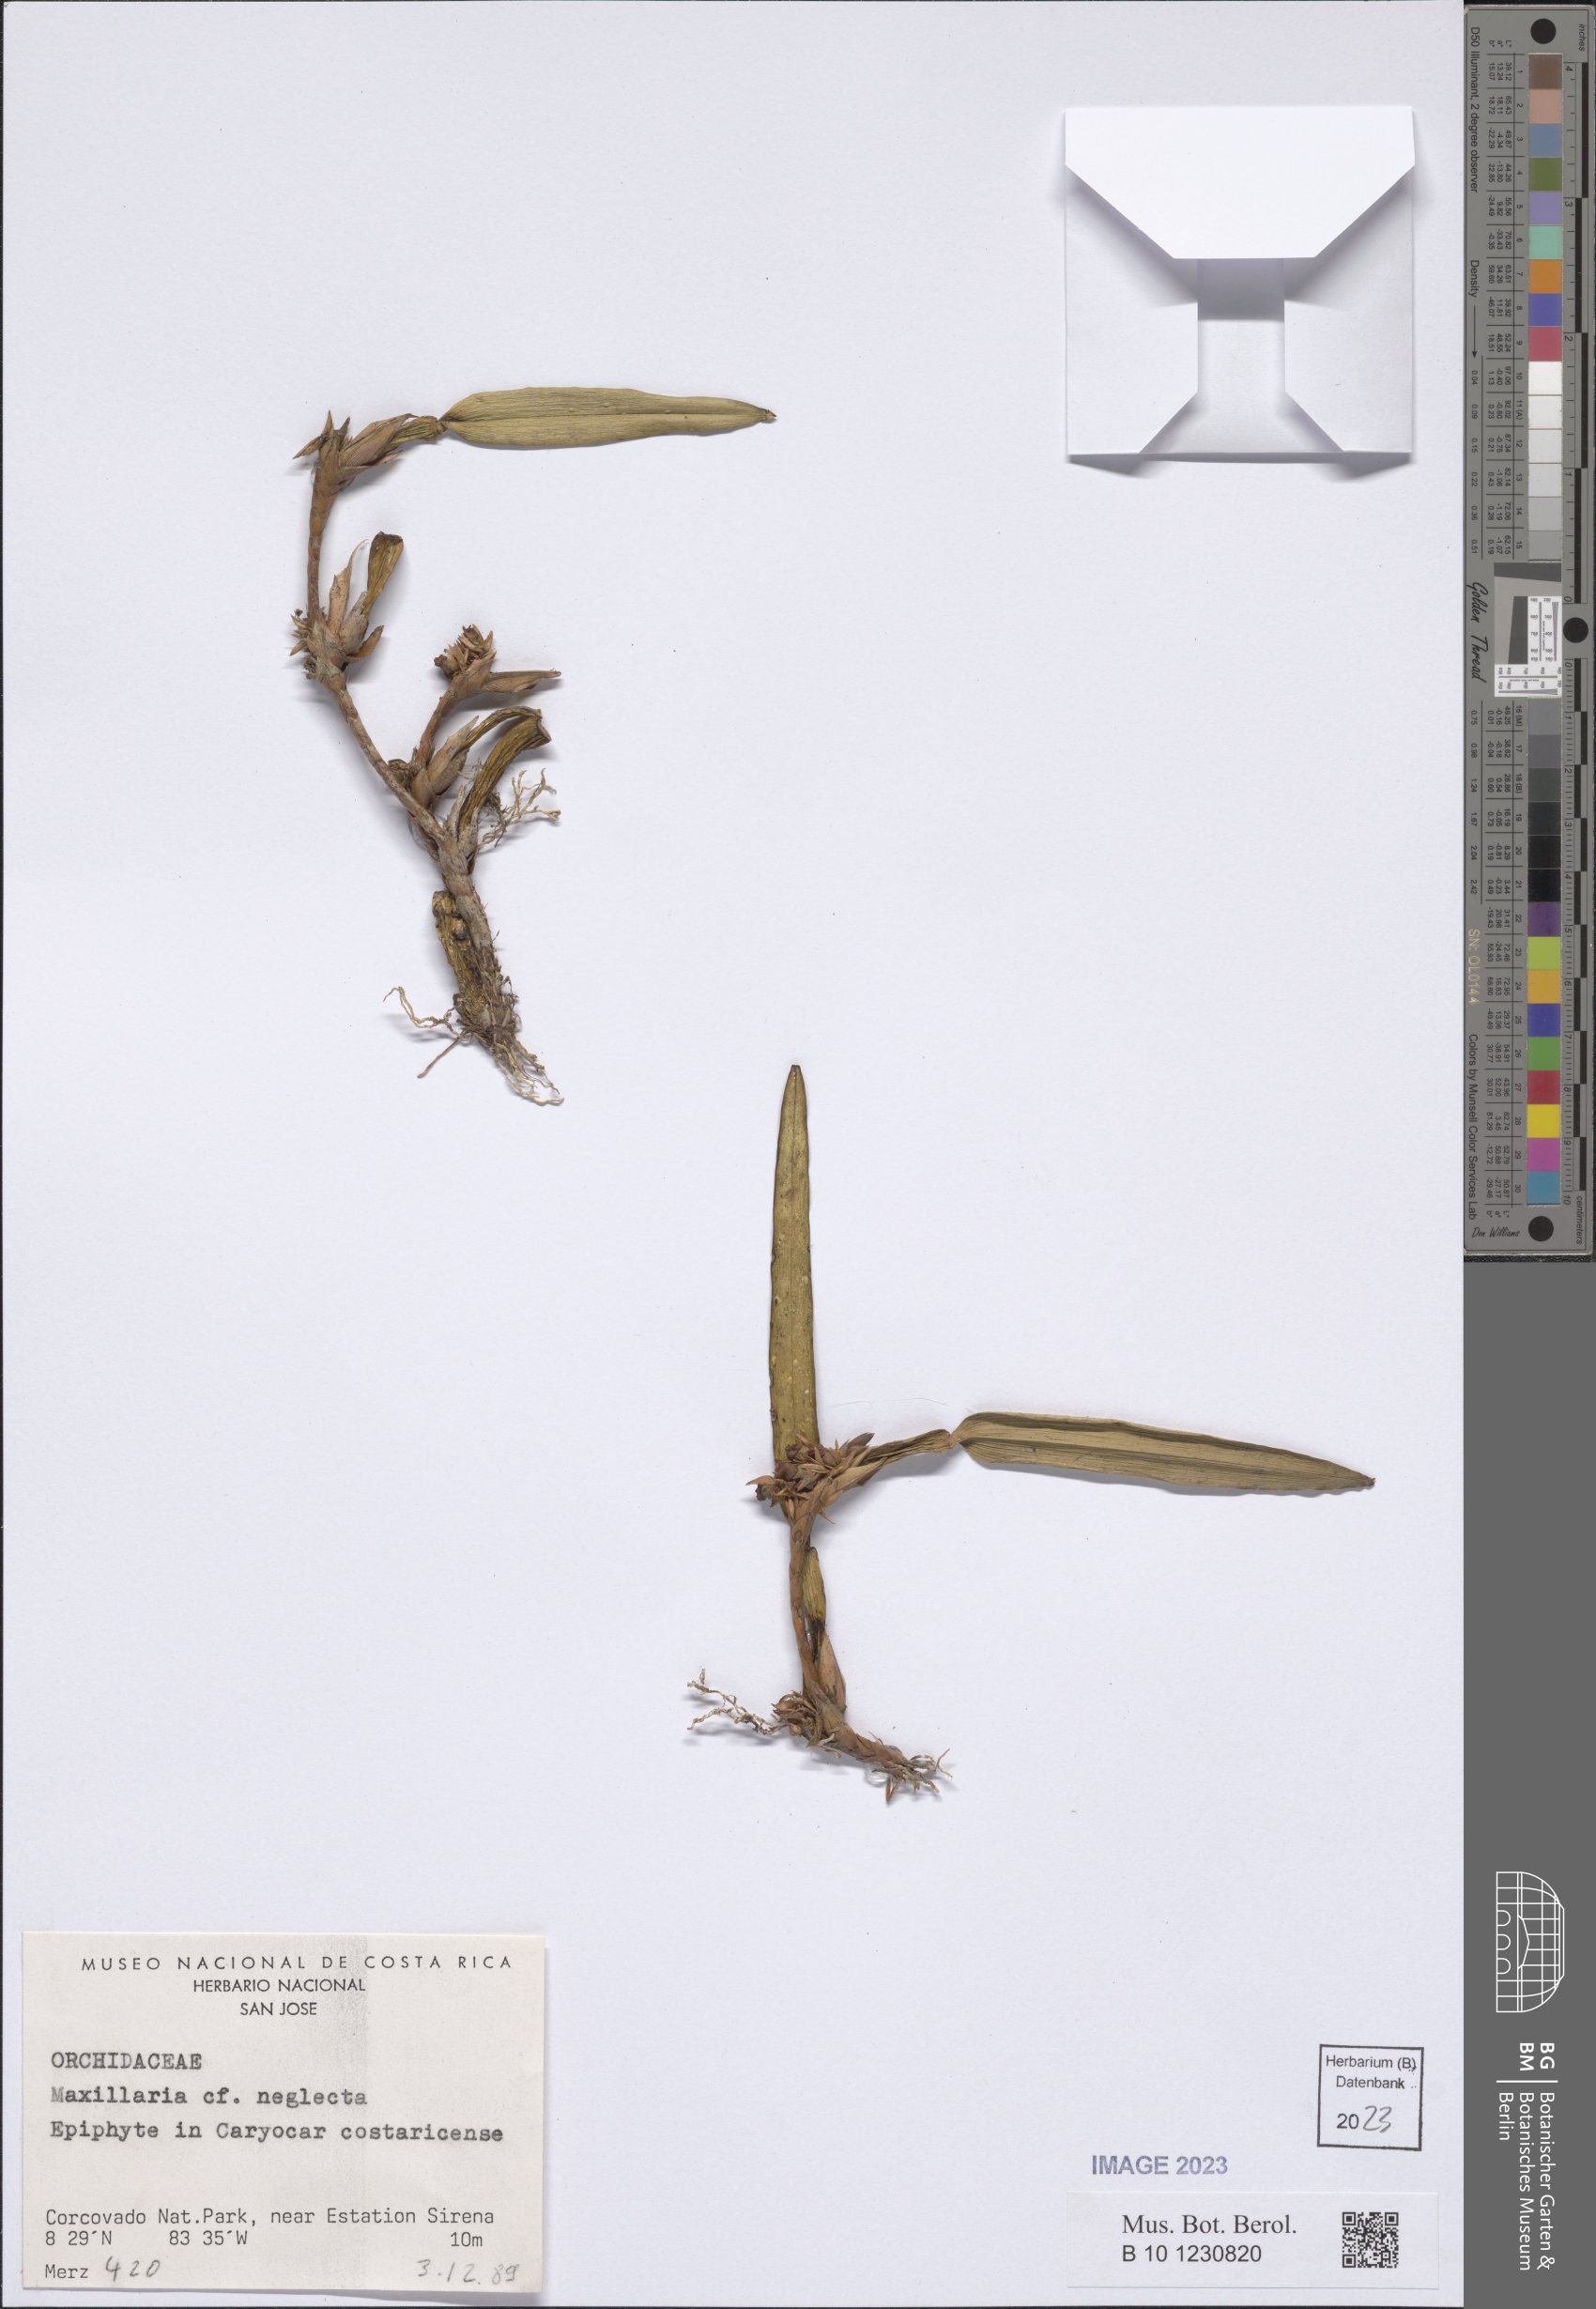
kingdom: Plantae
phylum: Tracheophyta
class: Liliopsida
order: Asparagales
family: Orchidaceae
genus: Maxillaria
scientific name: Maxillaria neglecta
